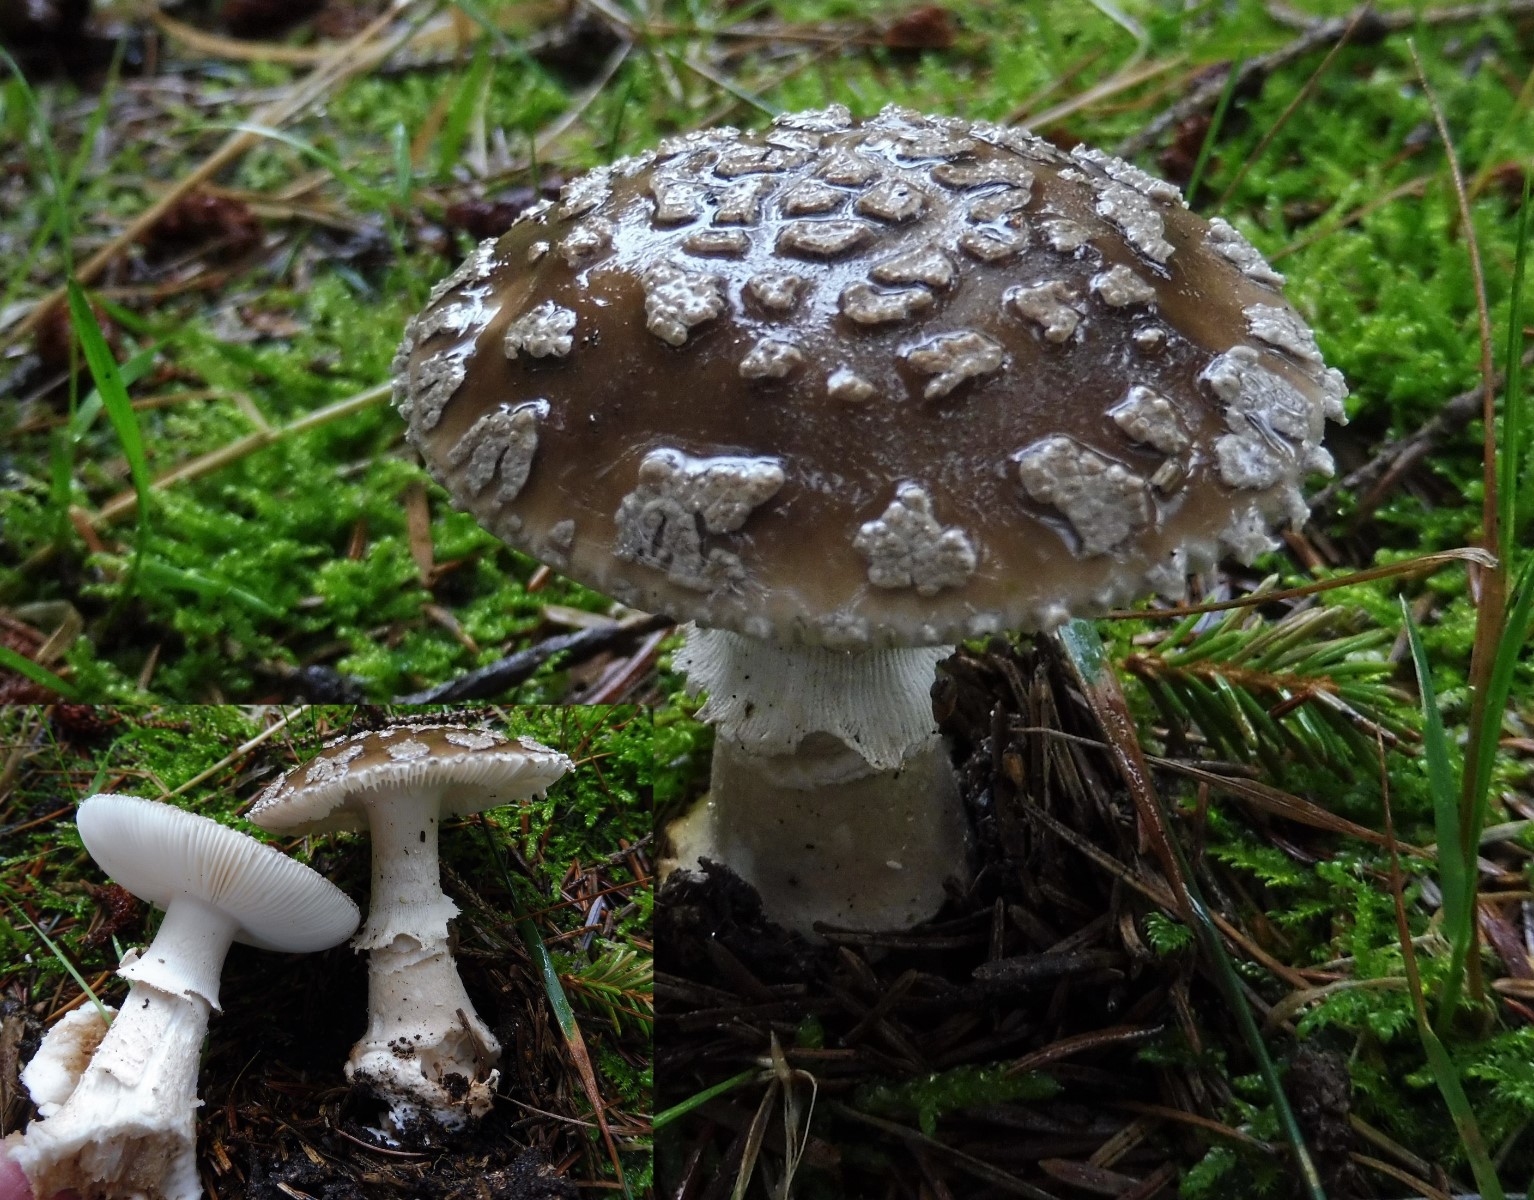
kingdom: Fungi
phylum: Basidiomycota
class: Agaricomycetes
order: Agaricales
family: Amanitaceae
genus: Amanita
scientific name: Amanita
